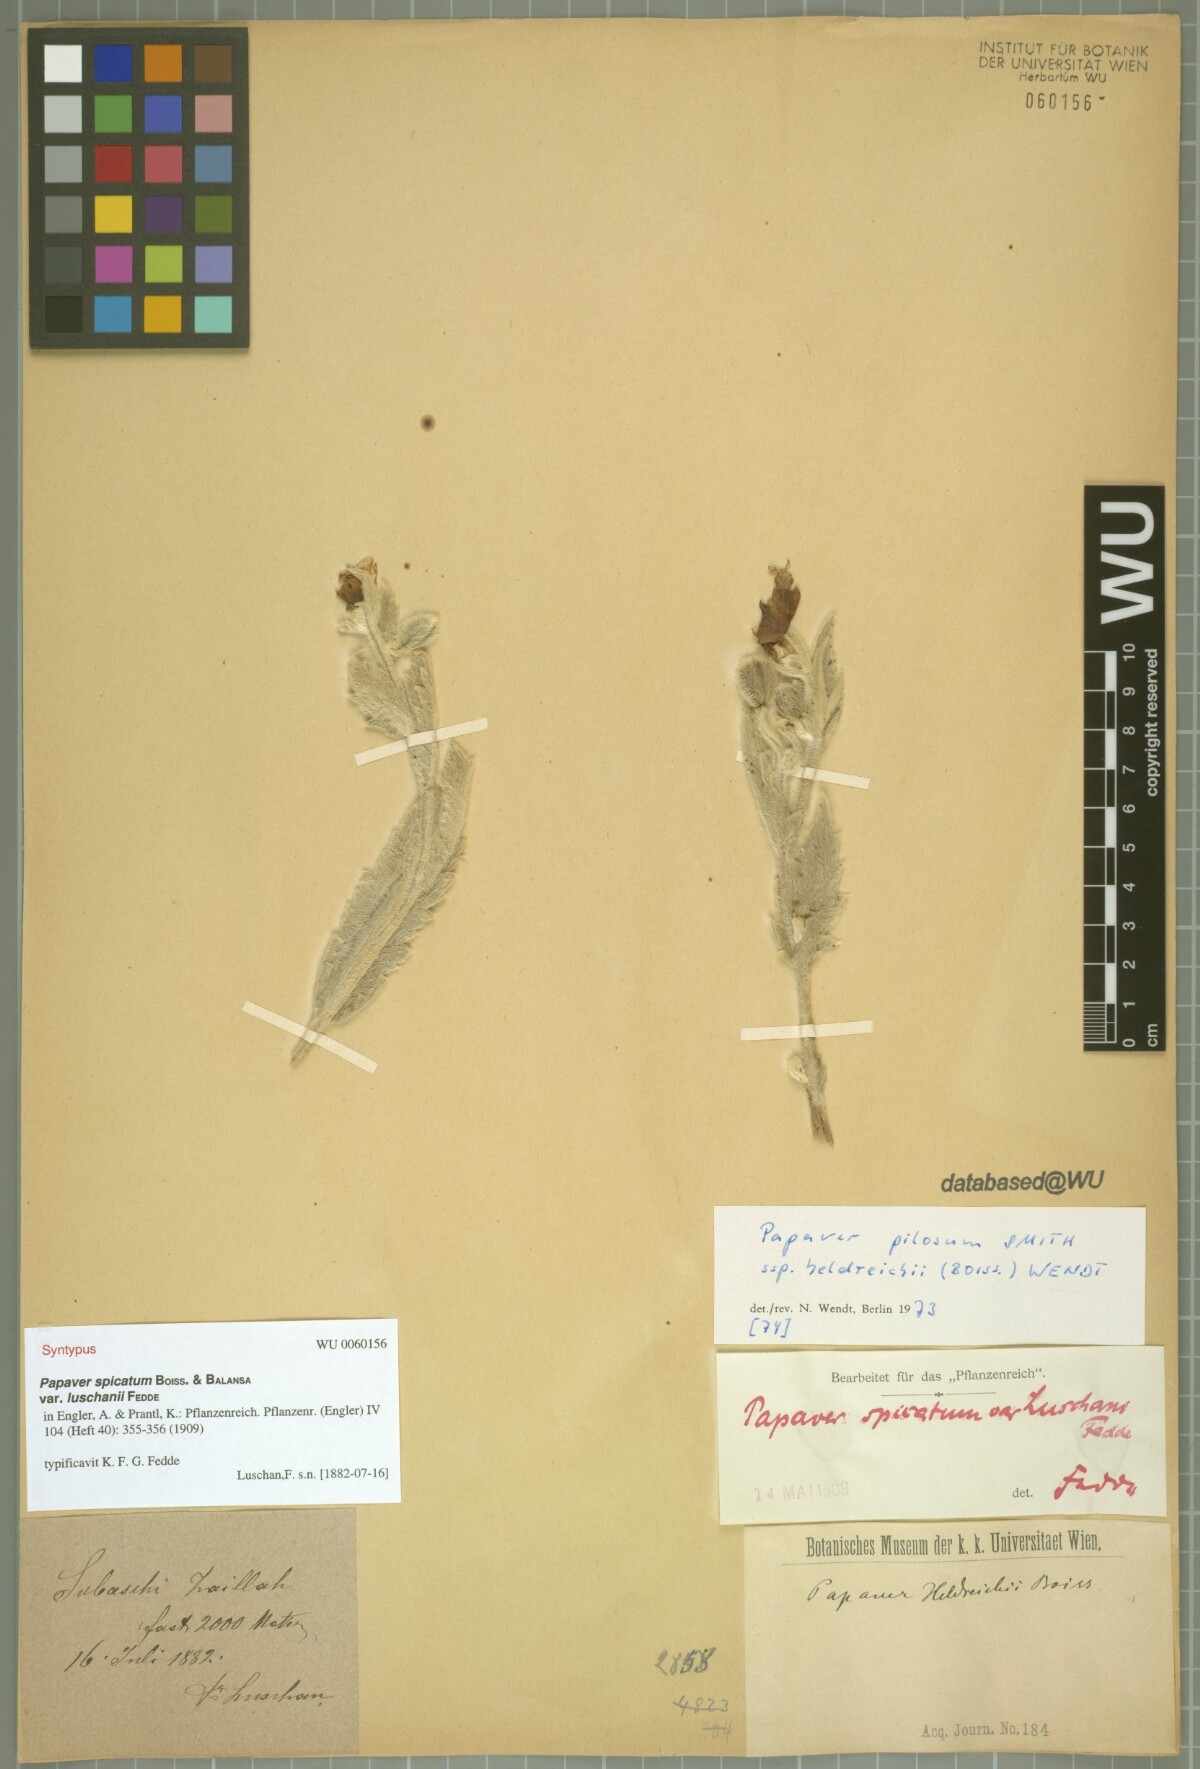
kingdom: Plantae
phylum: Tracheophyta
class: Magnoliopsida
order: Ranunculales
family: Papaveraceae
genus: Papaver
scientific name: Papaver pilosum
